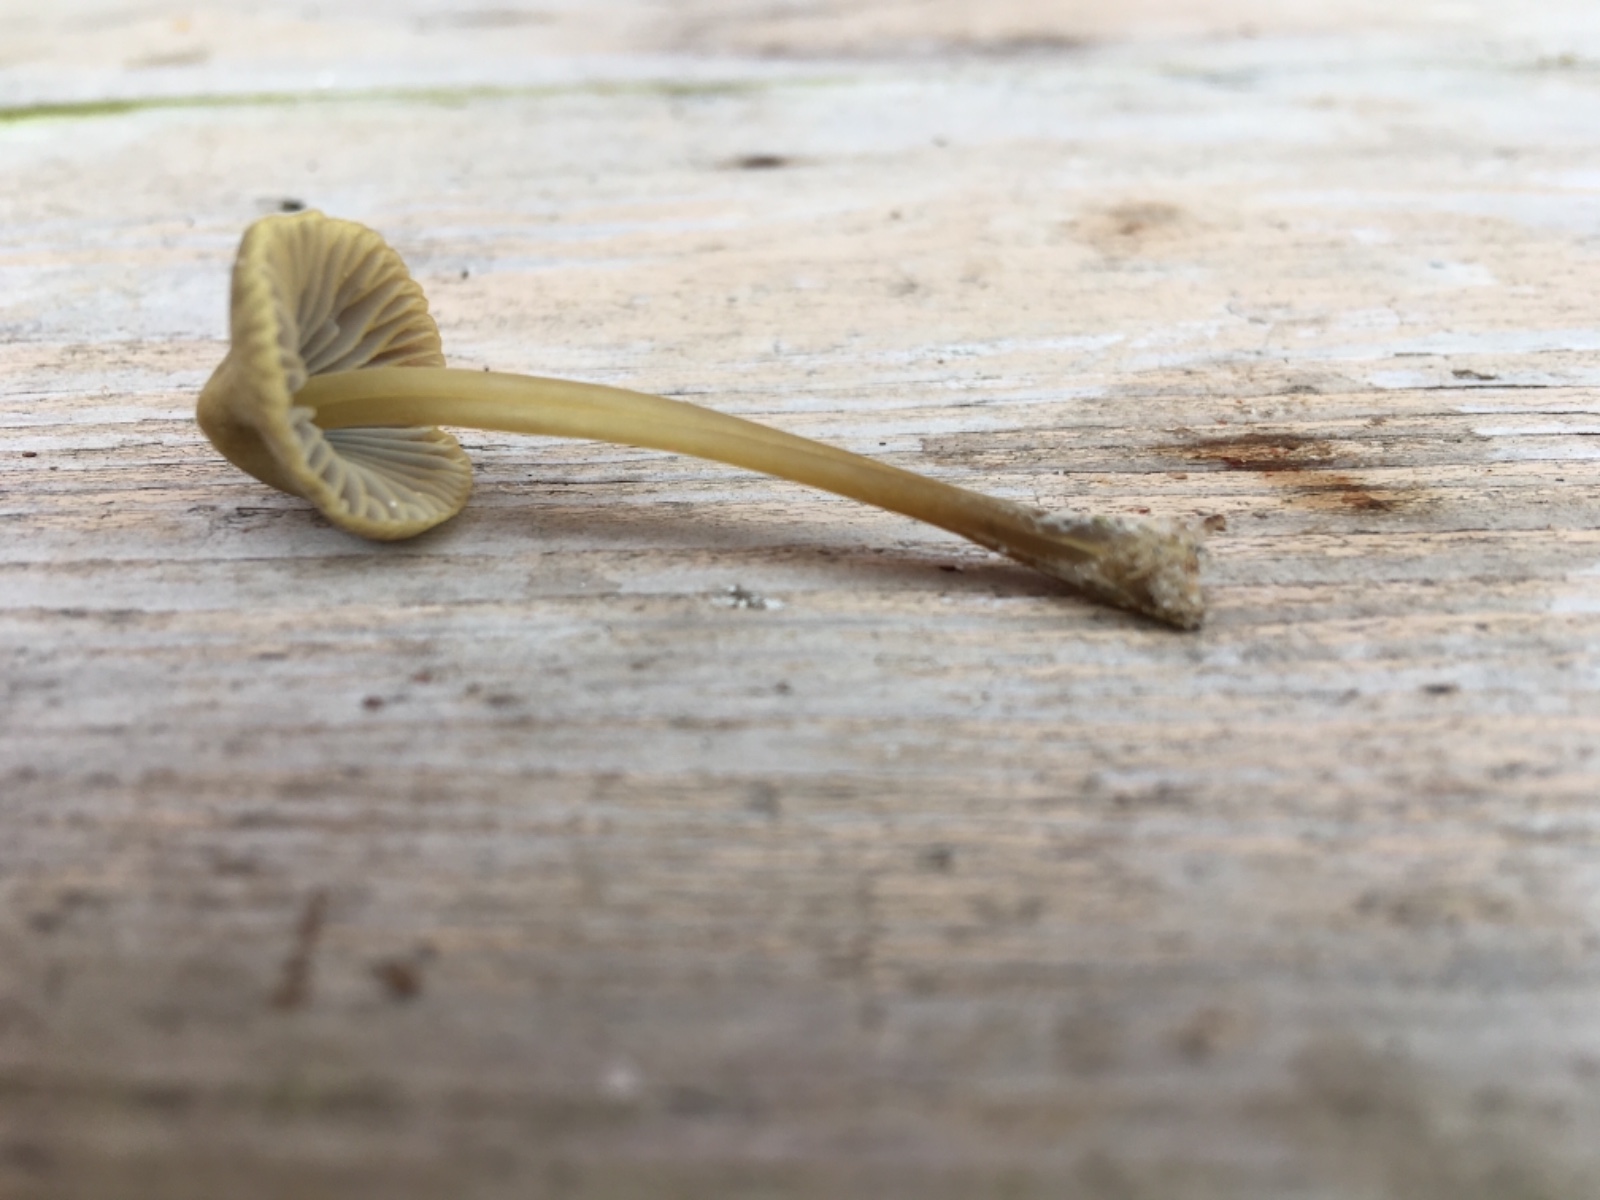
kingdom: Fungi
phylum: Basidiomycota
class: Agaricomycetes
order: Agaricales
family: Mycenaceae
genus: Mycena
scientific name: Mycena chlorantha
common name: klit-huesvamp
